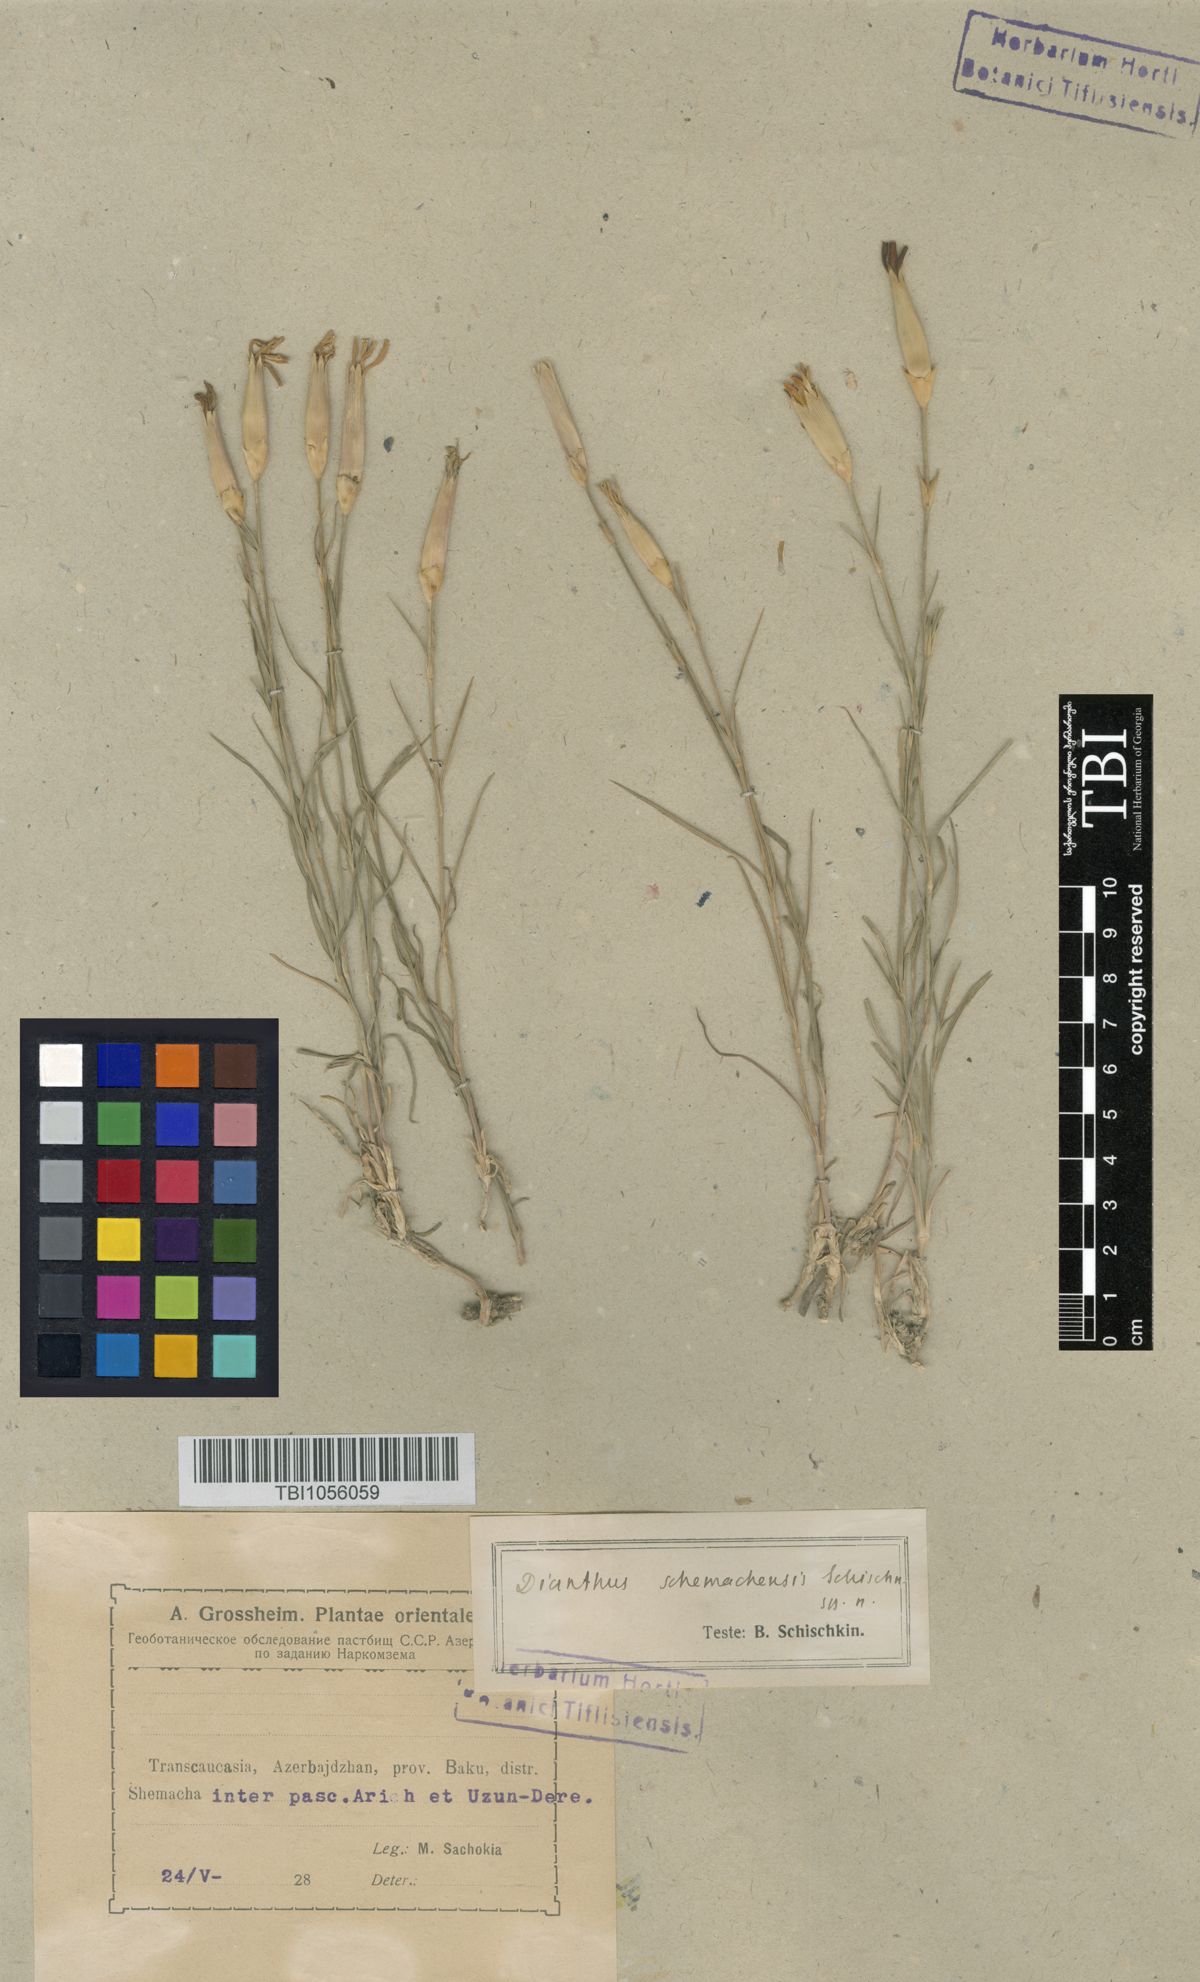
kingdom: Plantae
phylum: Tracheophyta
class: Magnoliopsida
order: Caryophyllales
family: Caryophyllaceae
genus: Dianthus
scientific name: Dianthus
